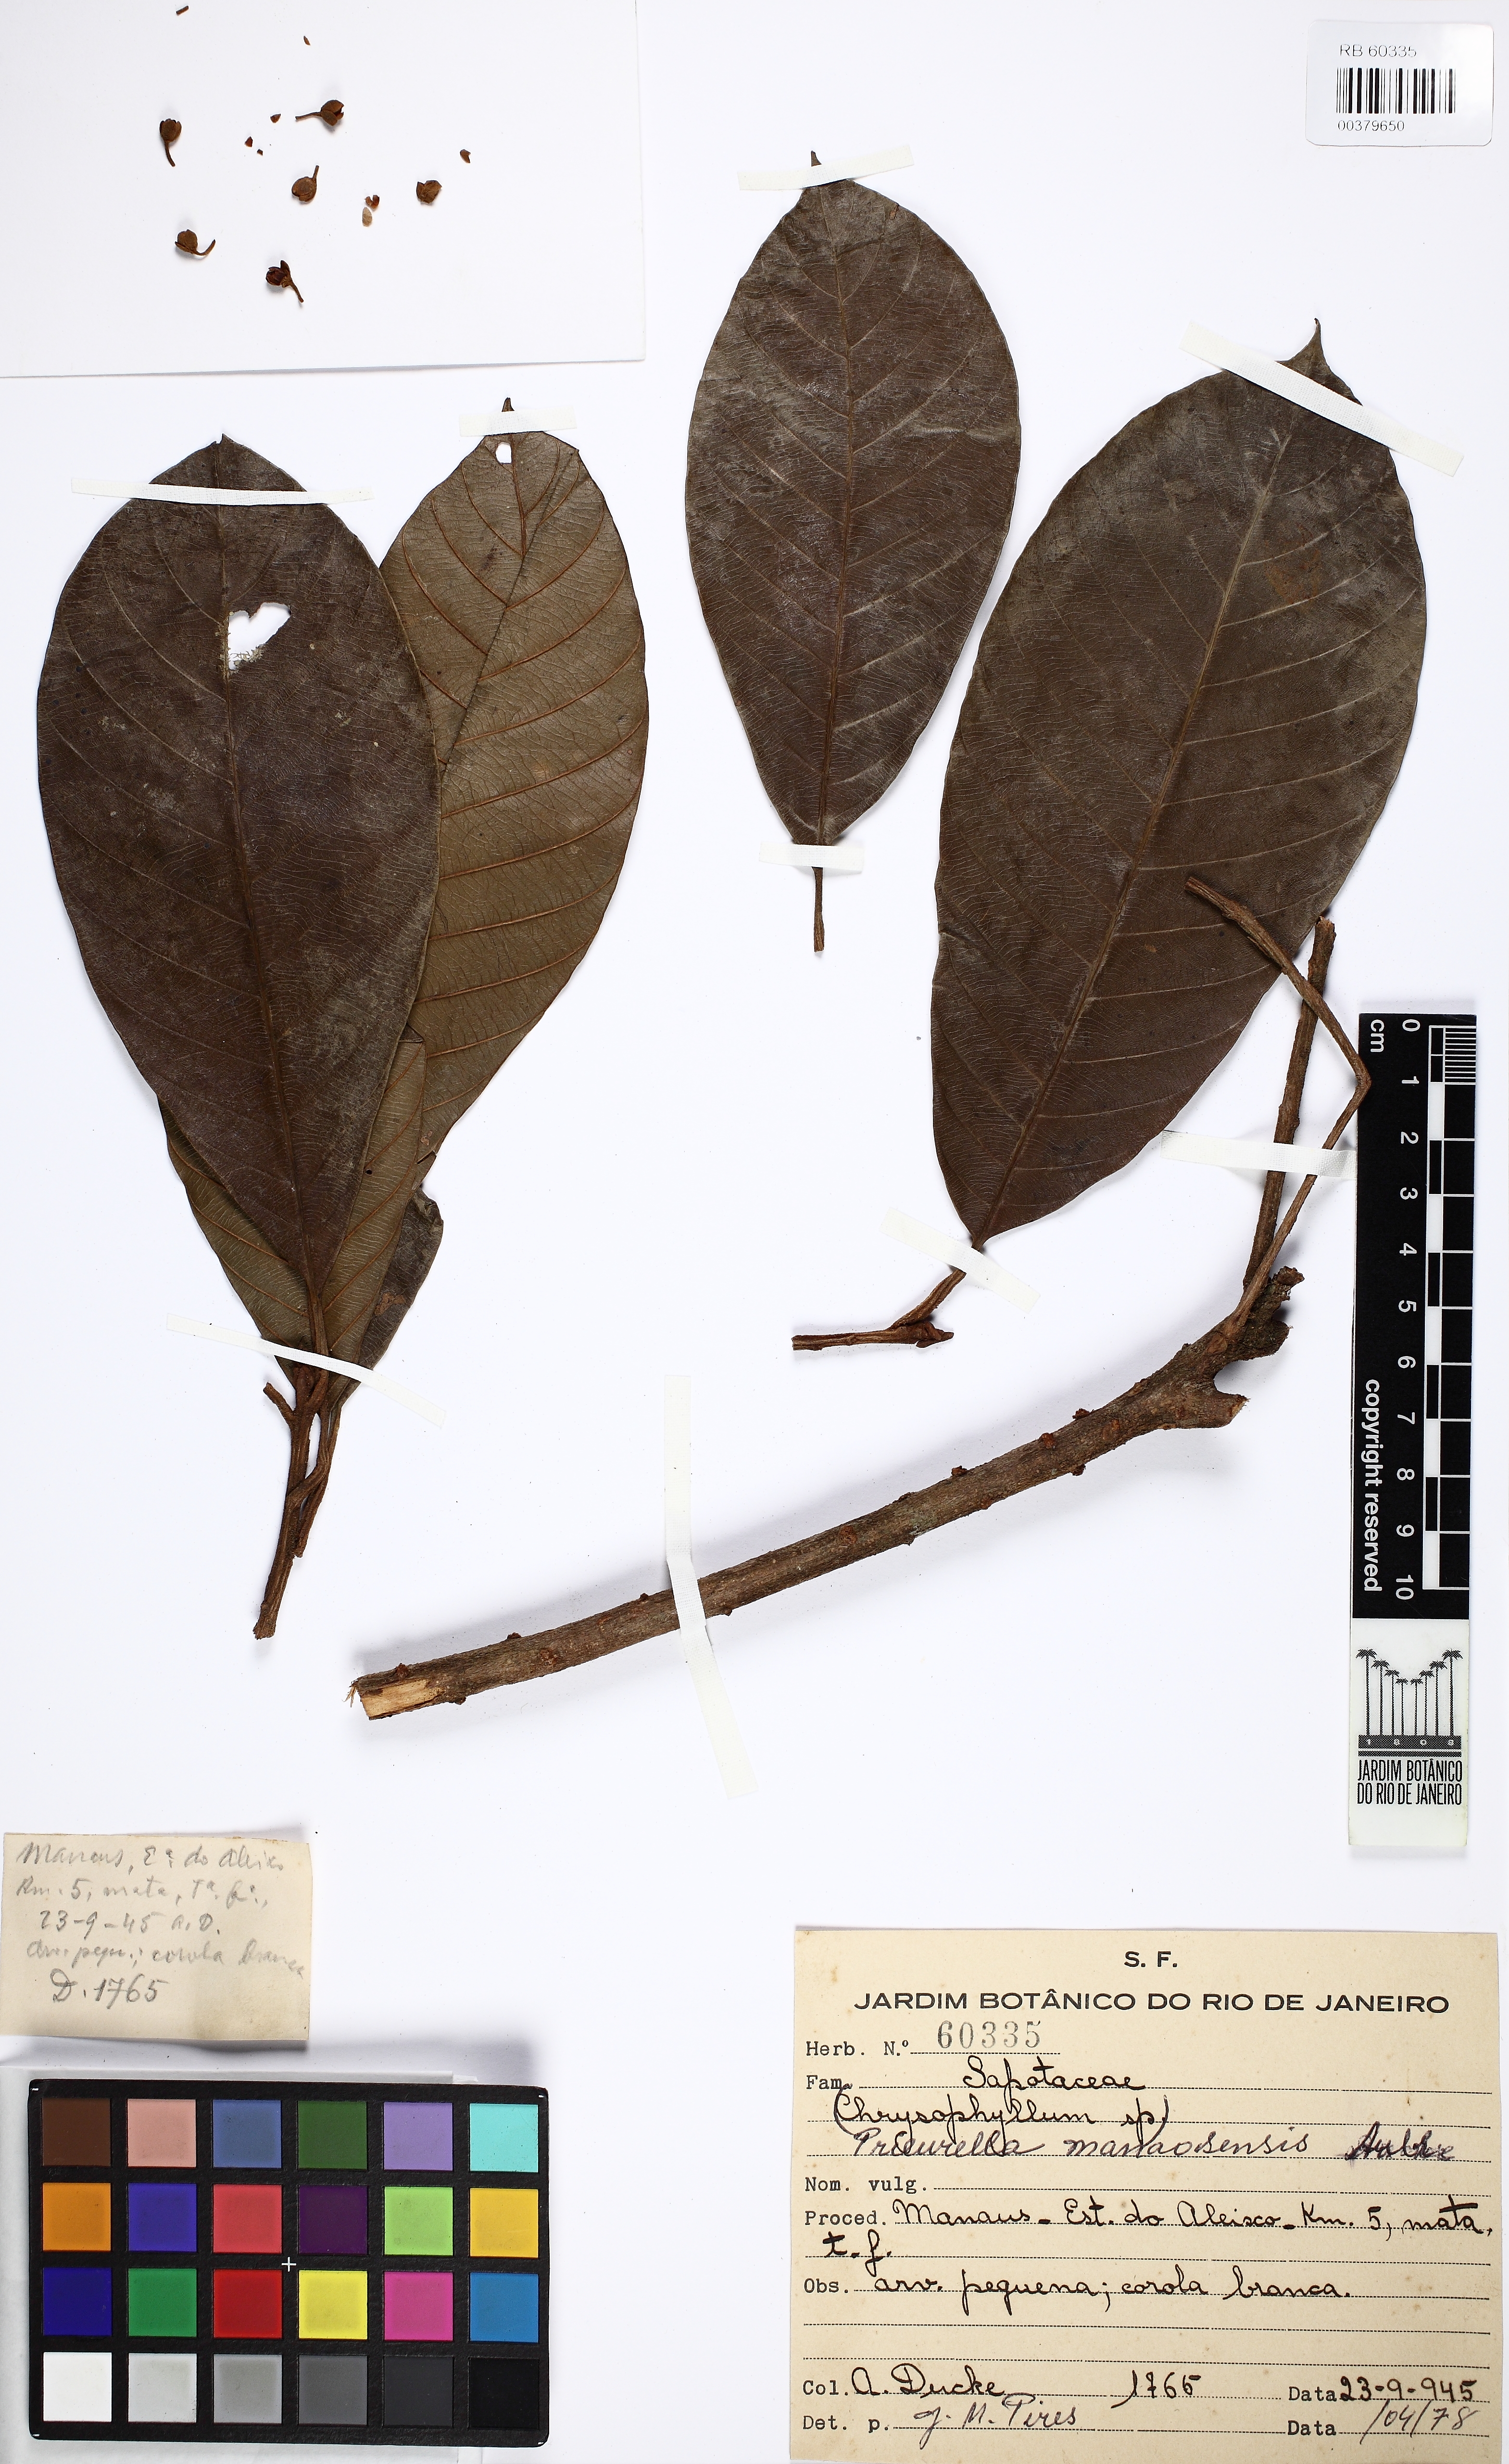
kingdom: Plantae
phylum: Tracheophyta
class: Magnoliopsida
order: Ericales
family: Sapotaceae
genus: Chrysophyllum
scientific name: Chrysophyllum manaosense
